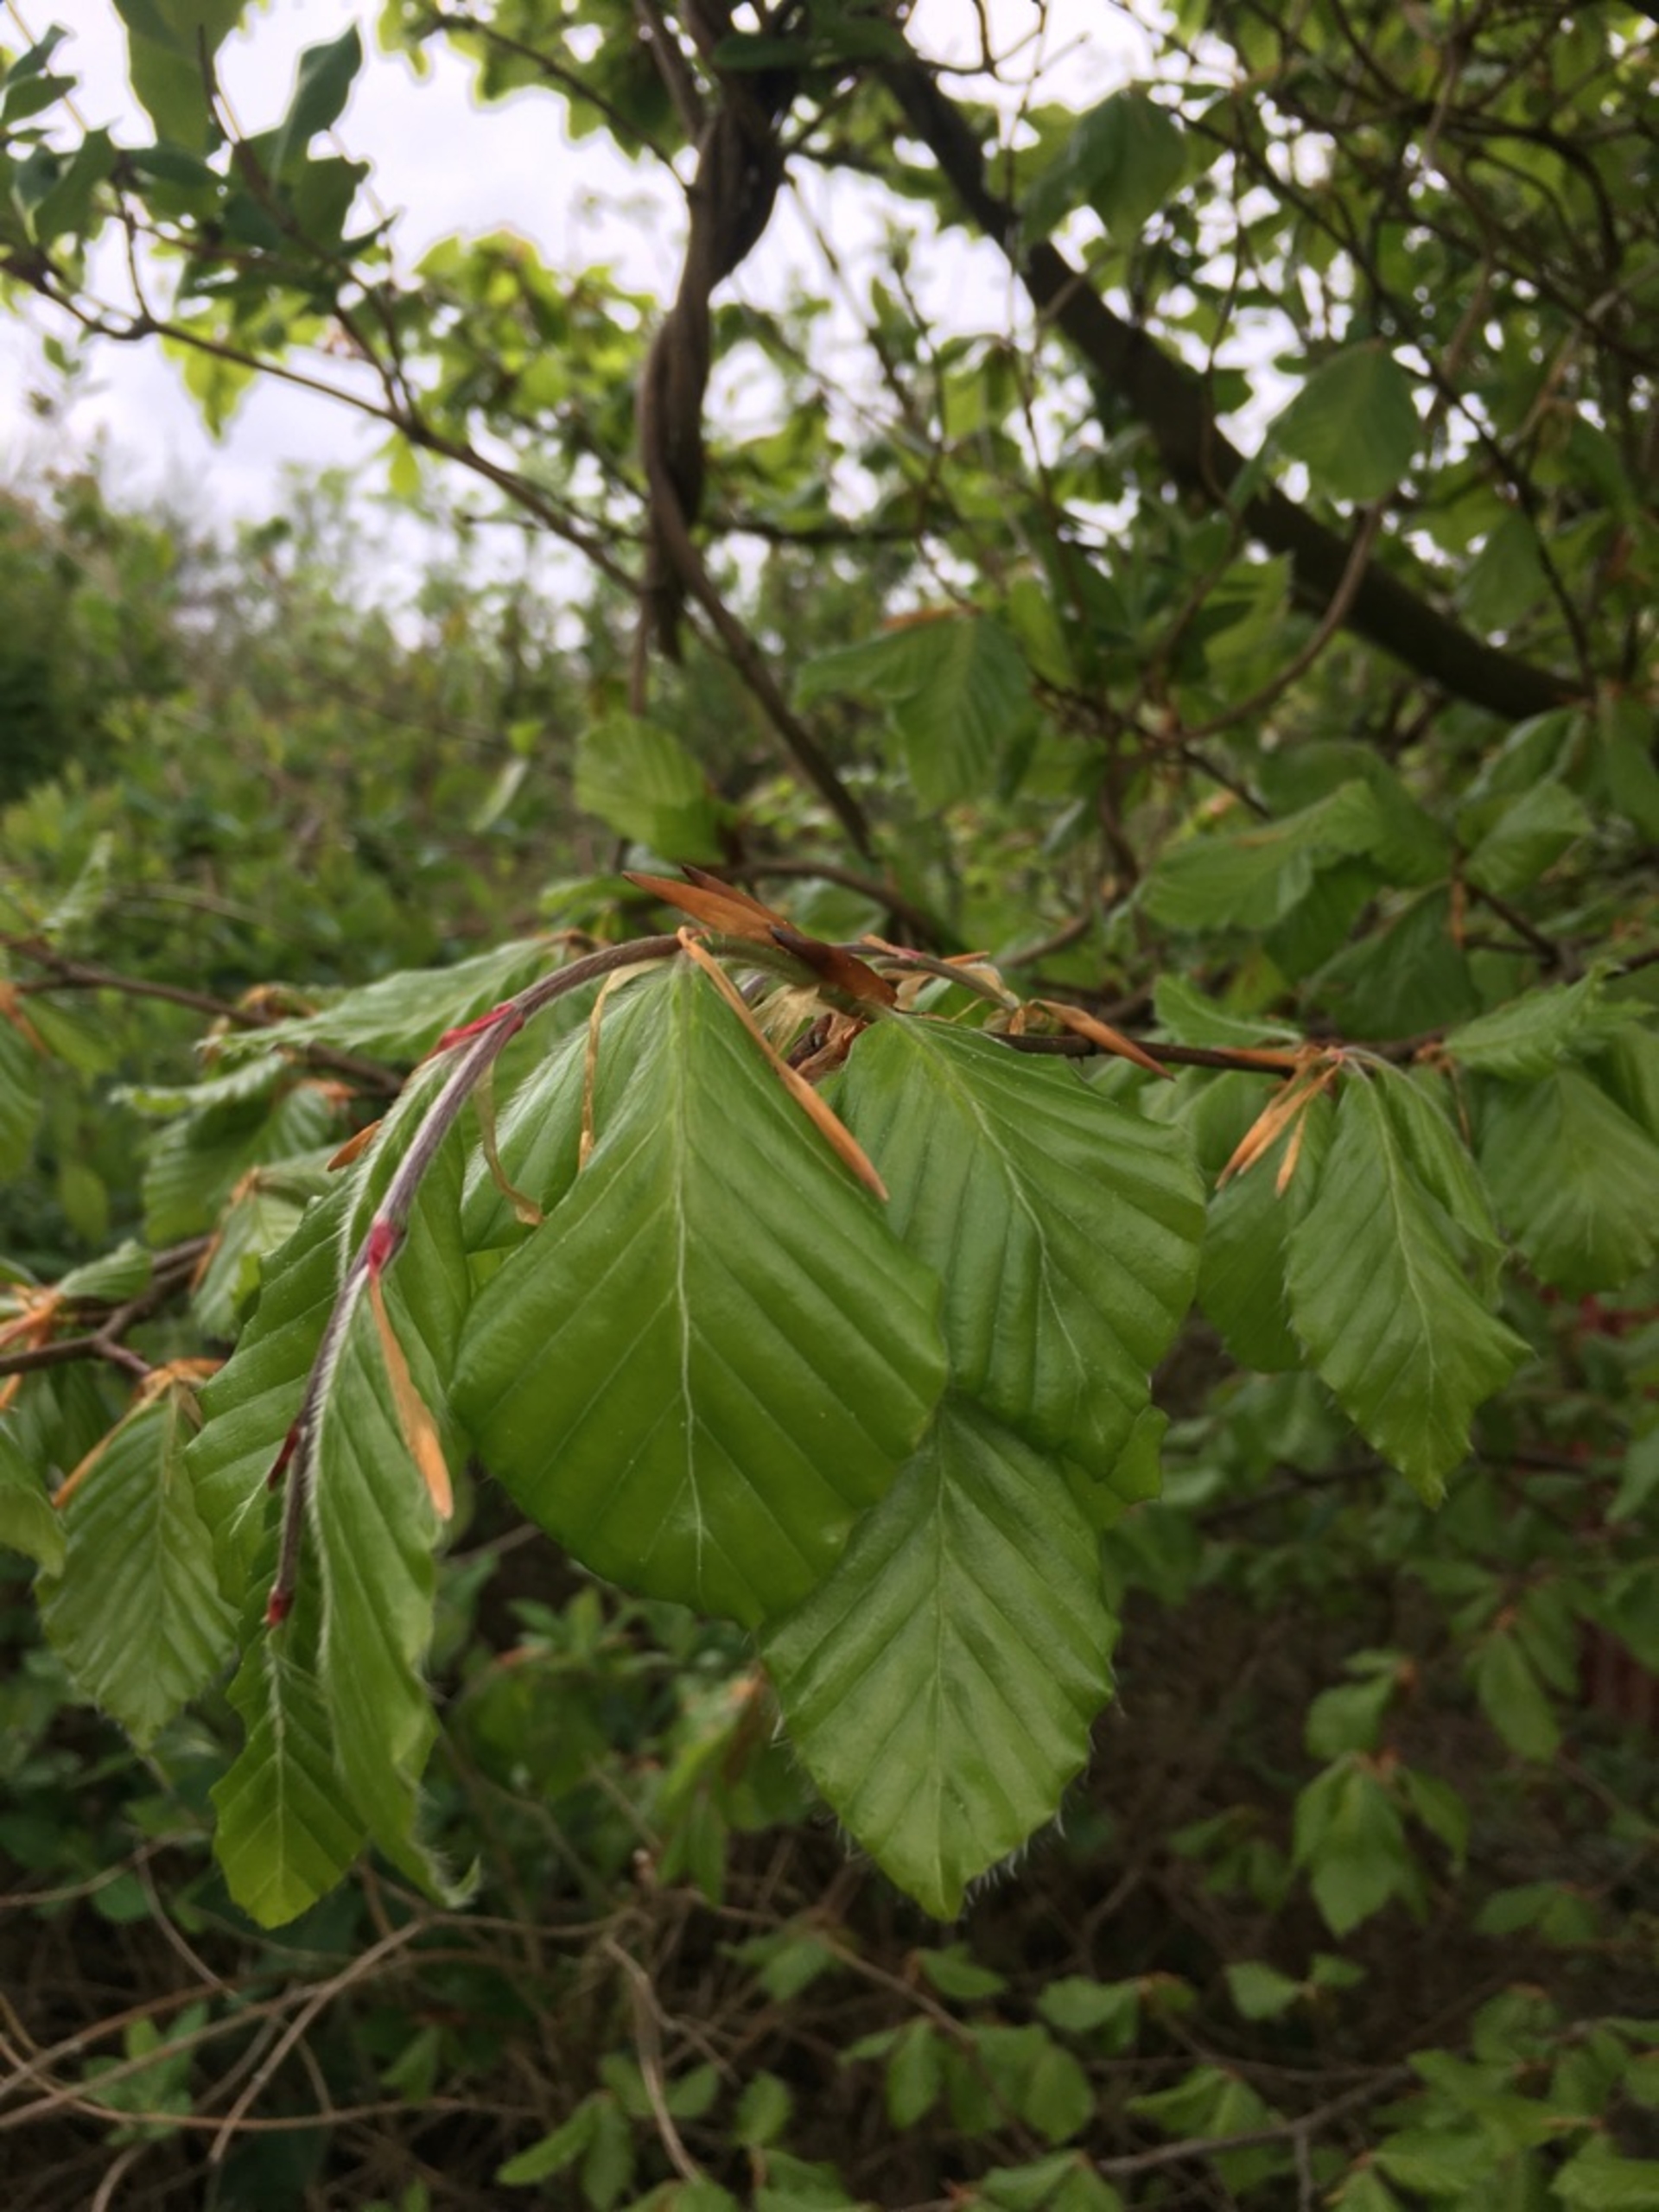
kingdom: Plantae
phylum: Tracheophyta
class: Magnoliopsida
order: Fagales
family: Fagaceae
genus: Fagus
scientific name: Fagus sylvatica
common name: Bøg
